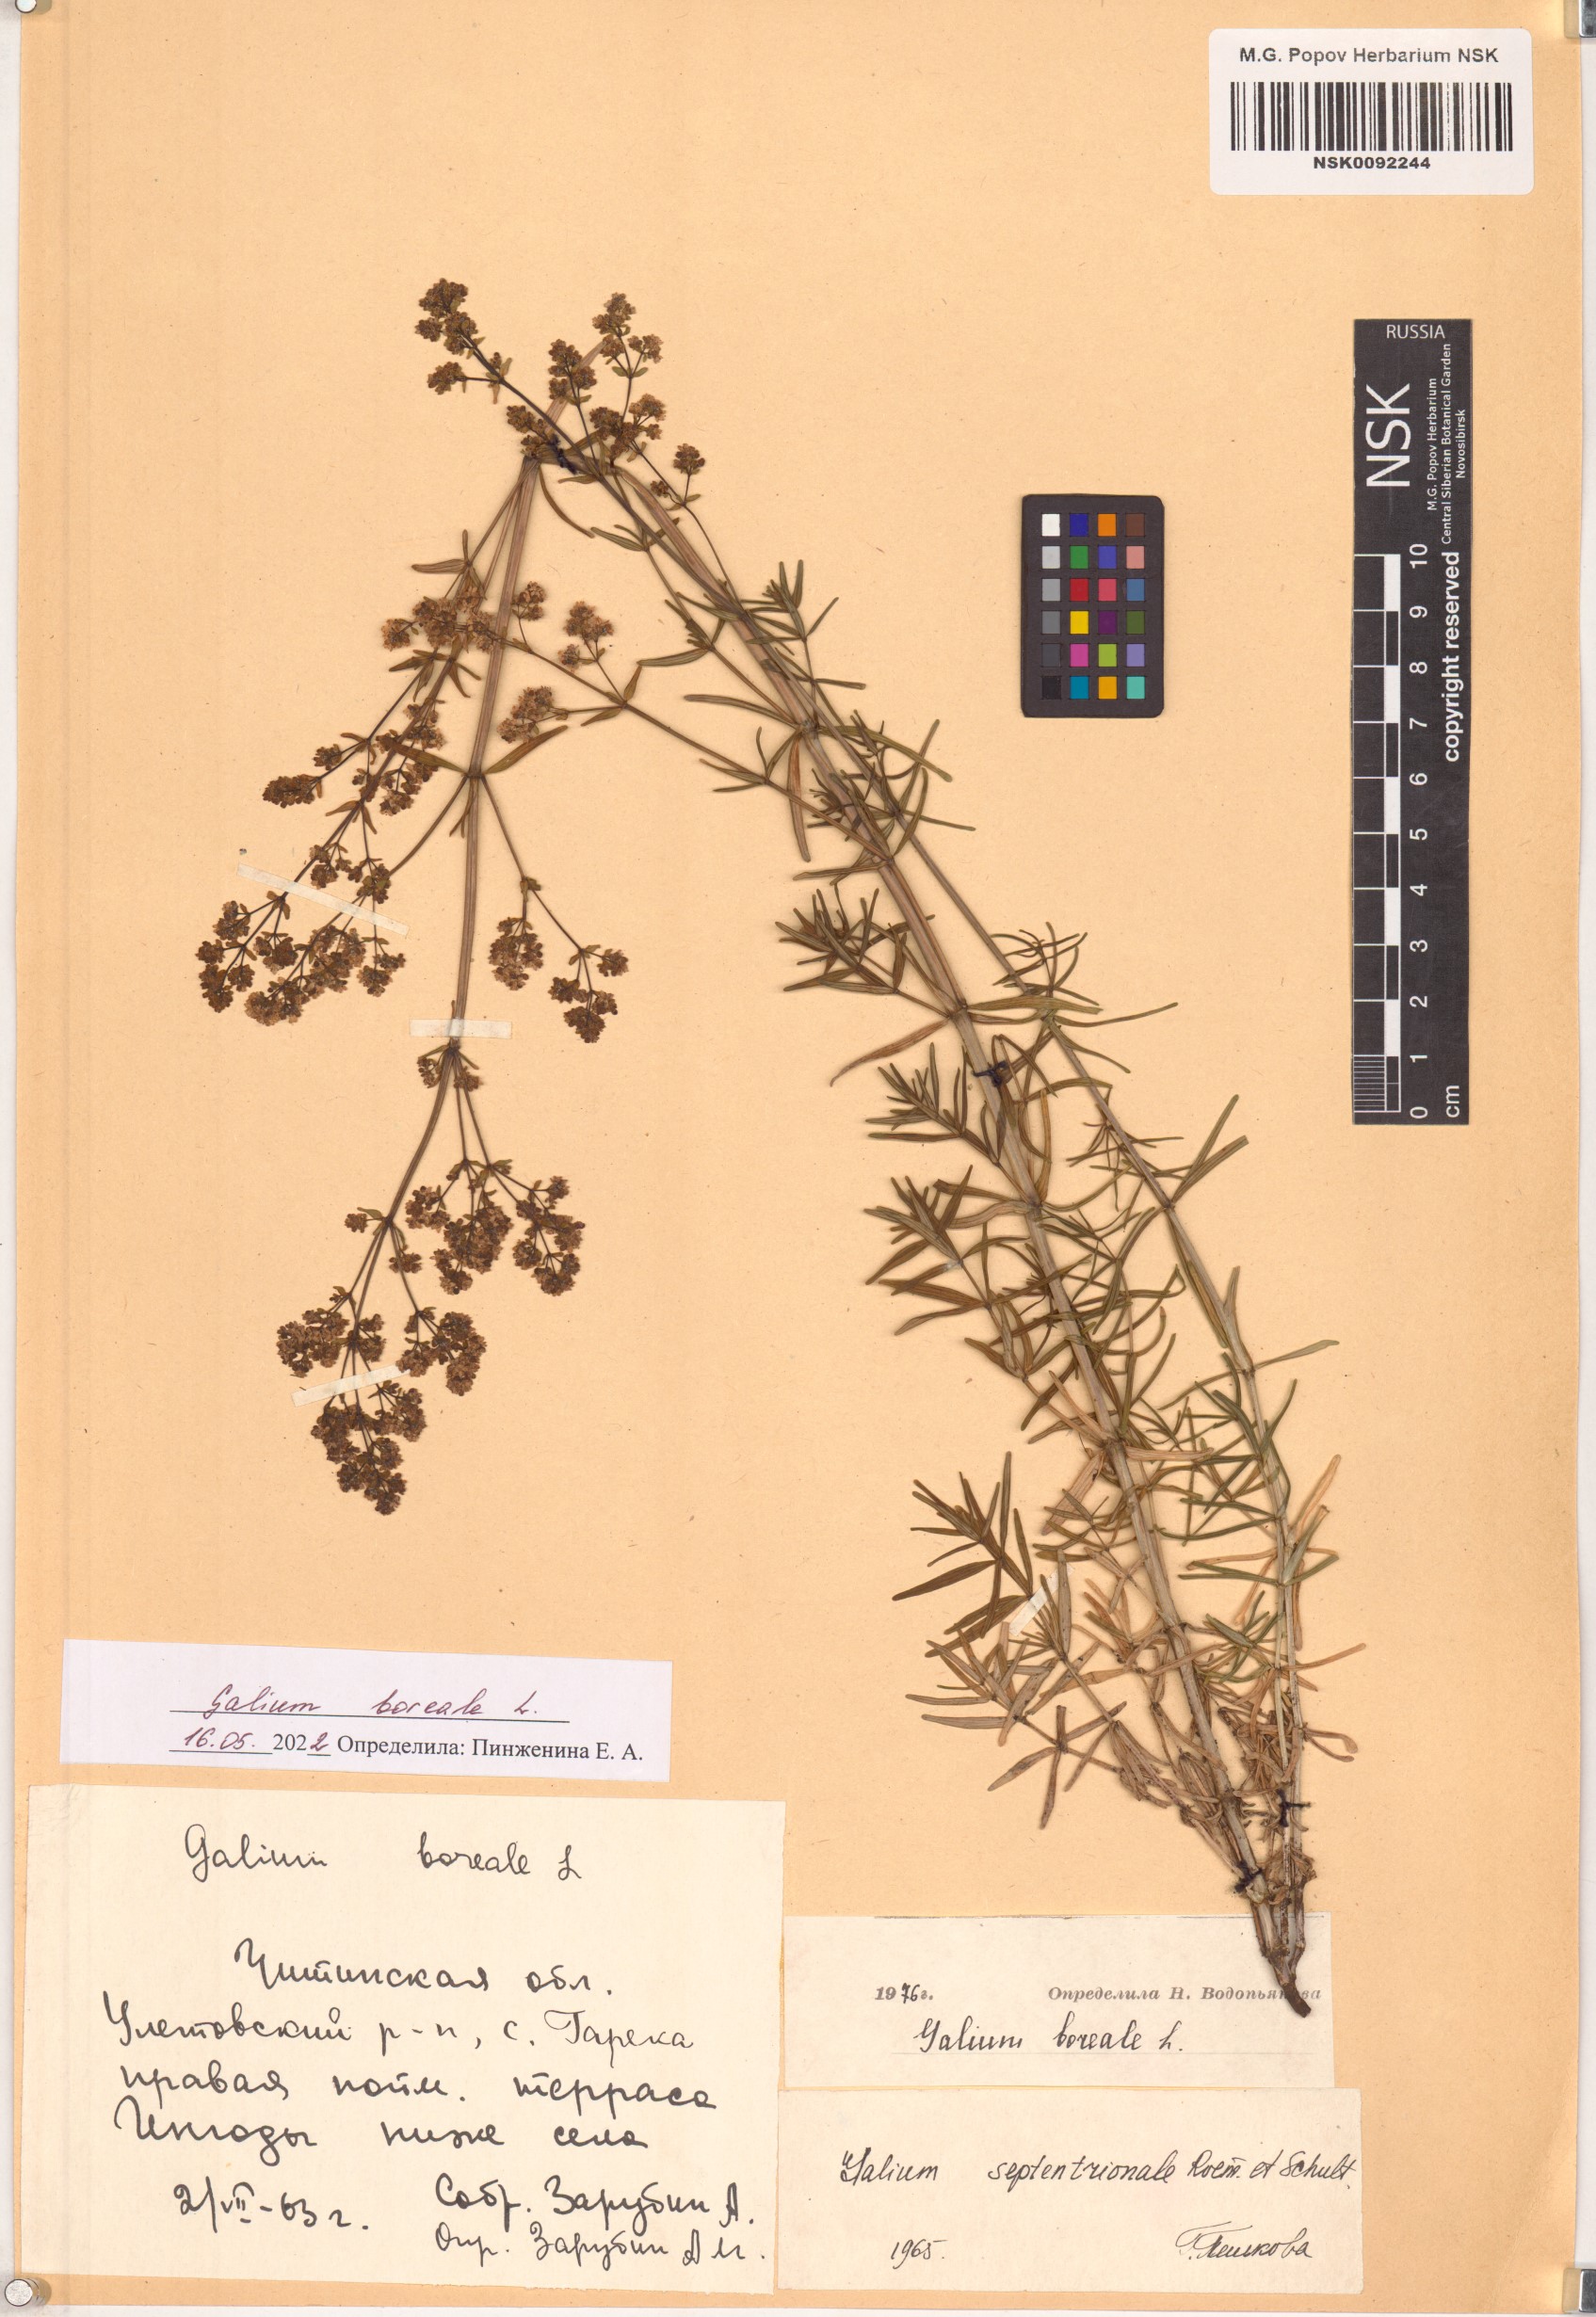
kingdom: Plantae
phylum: Tracheophyta
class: Magnoliopsida
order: Gentianales
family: Rubiaceae
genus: Galium
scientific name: Galium boreale
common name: Northern bedstraw
